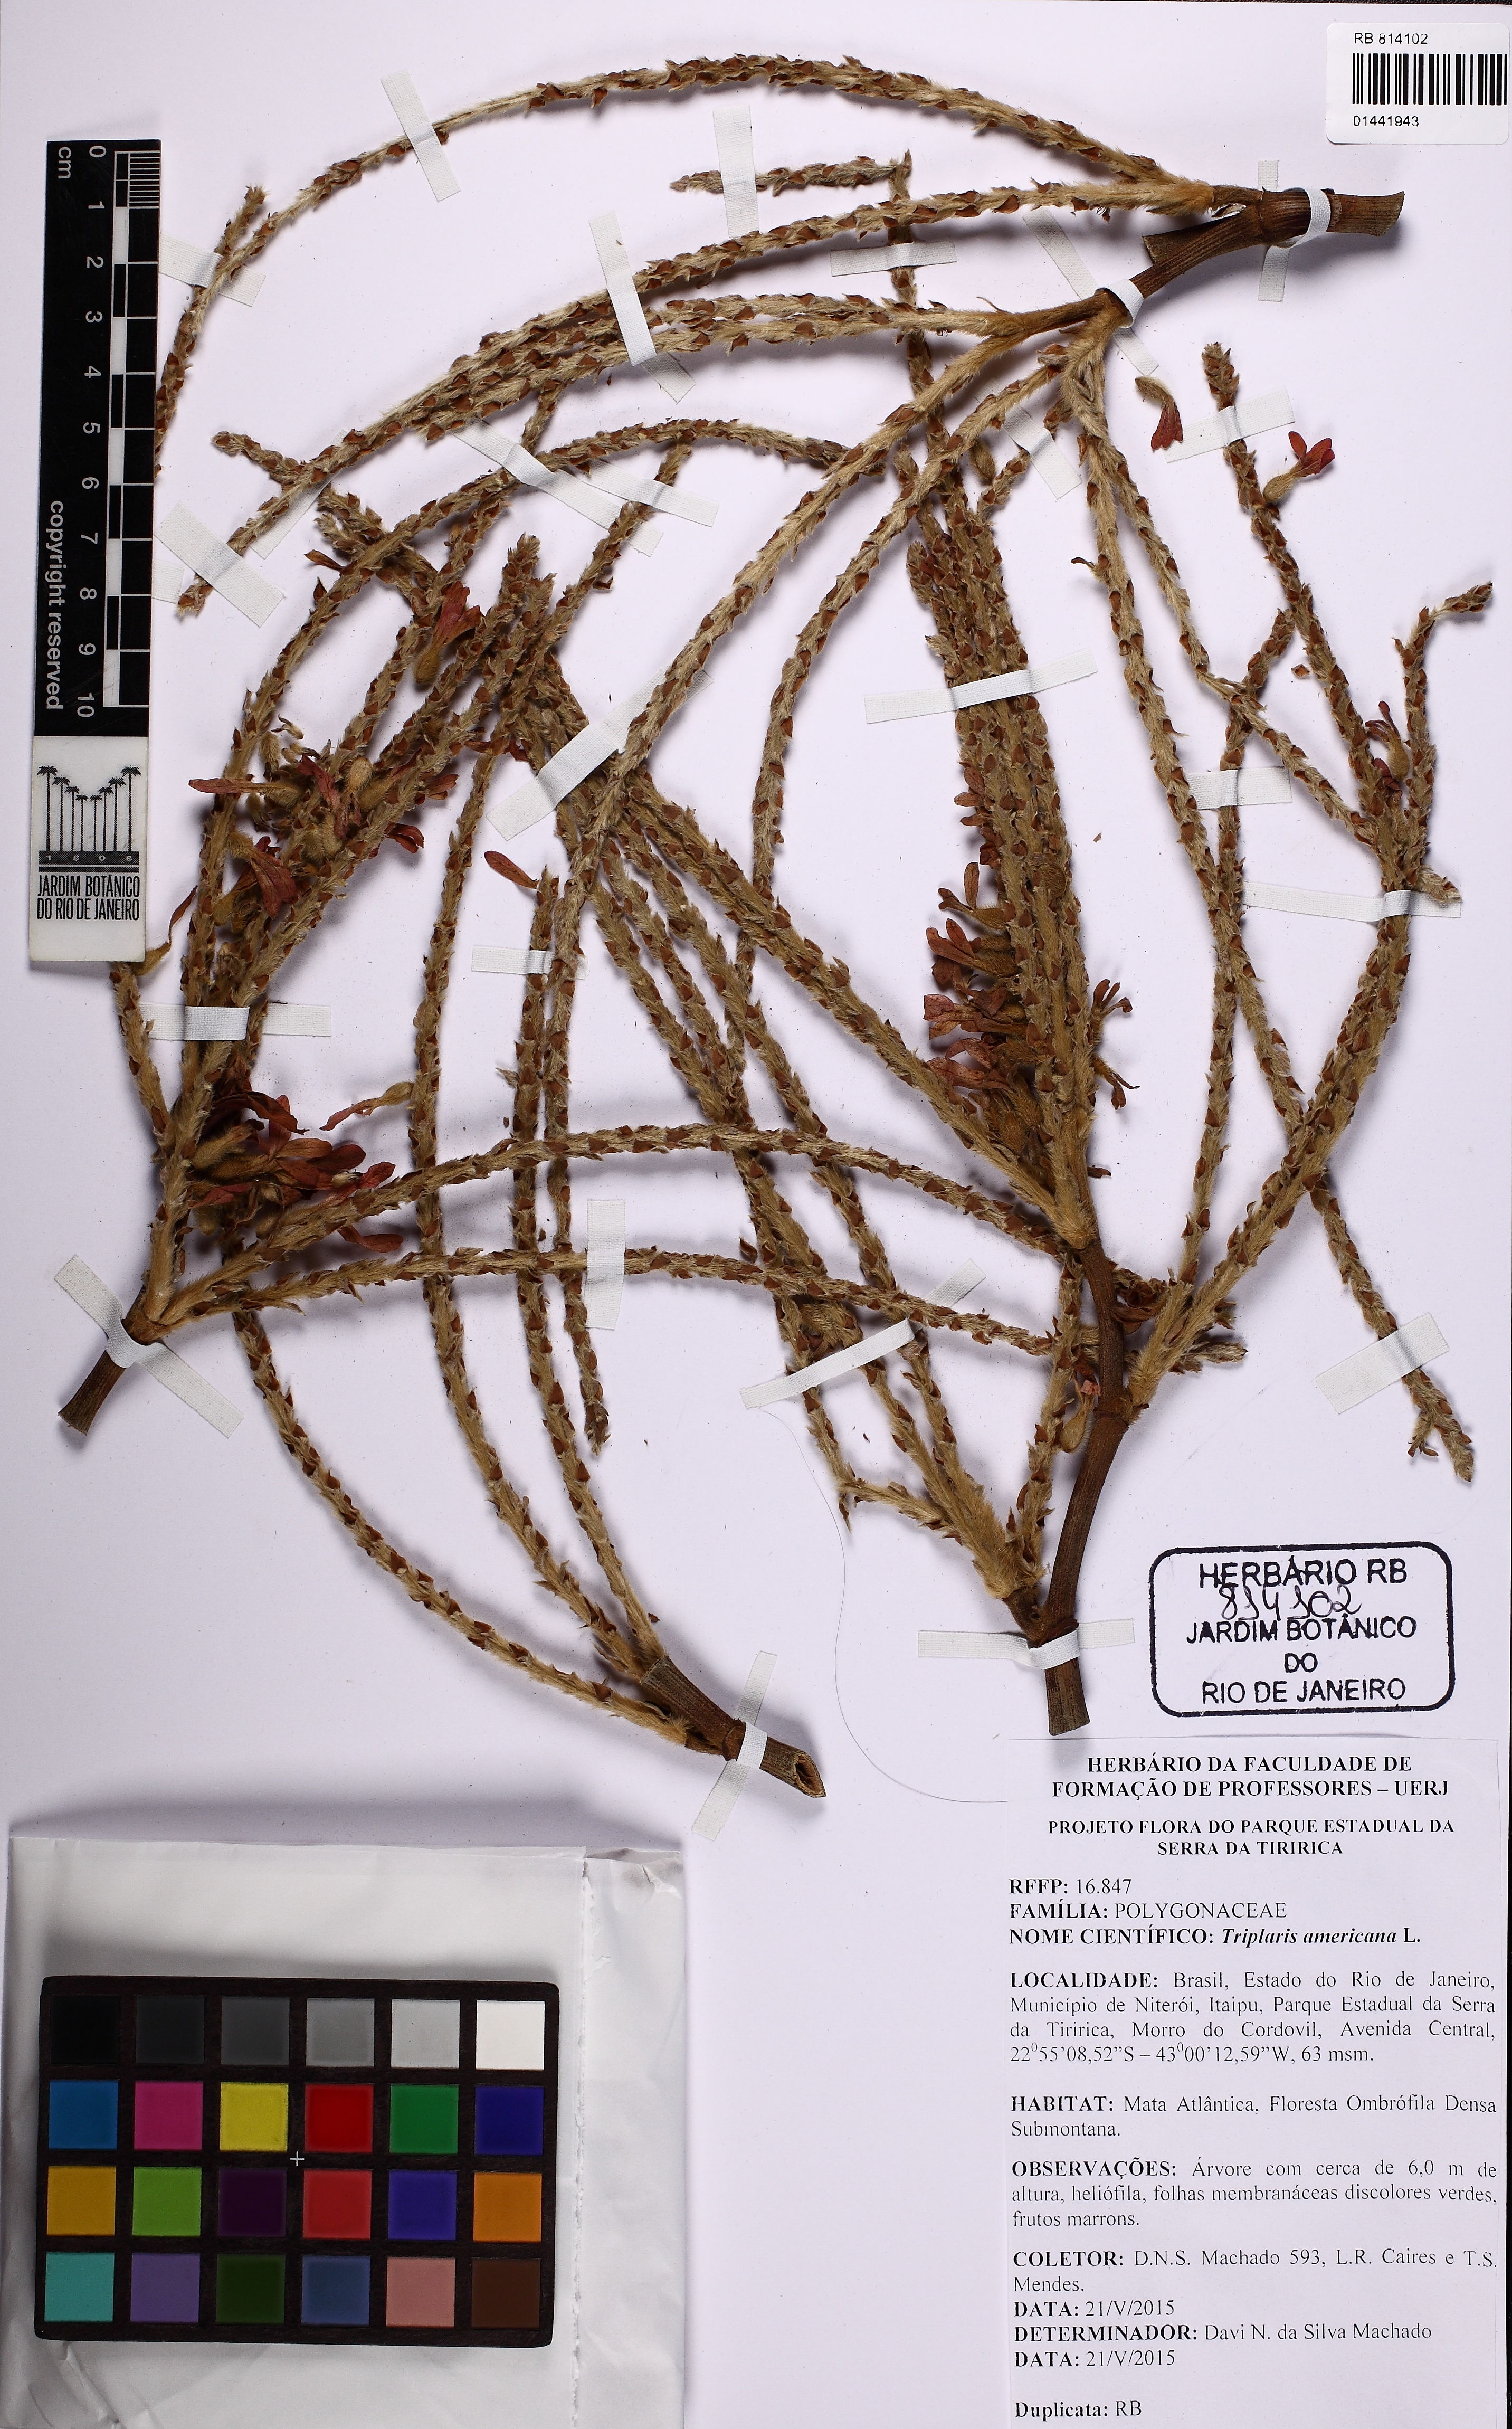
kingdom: Plantae
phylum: Tracheophyta
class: Magnoliopsida
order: Caryophyllales
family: Polygonaceae
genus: Triplaris
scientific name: Triplaris americana
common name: Ant-tree
